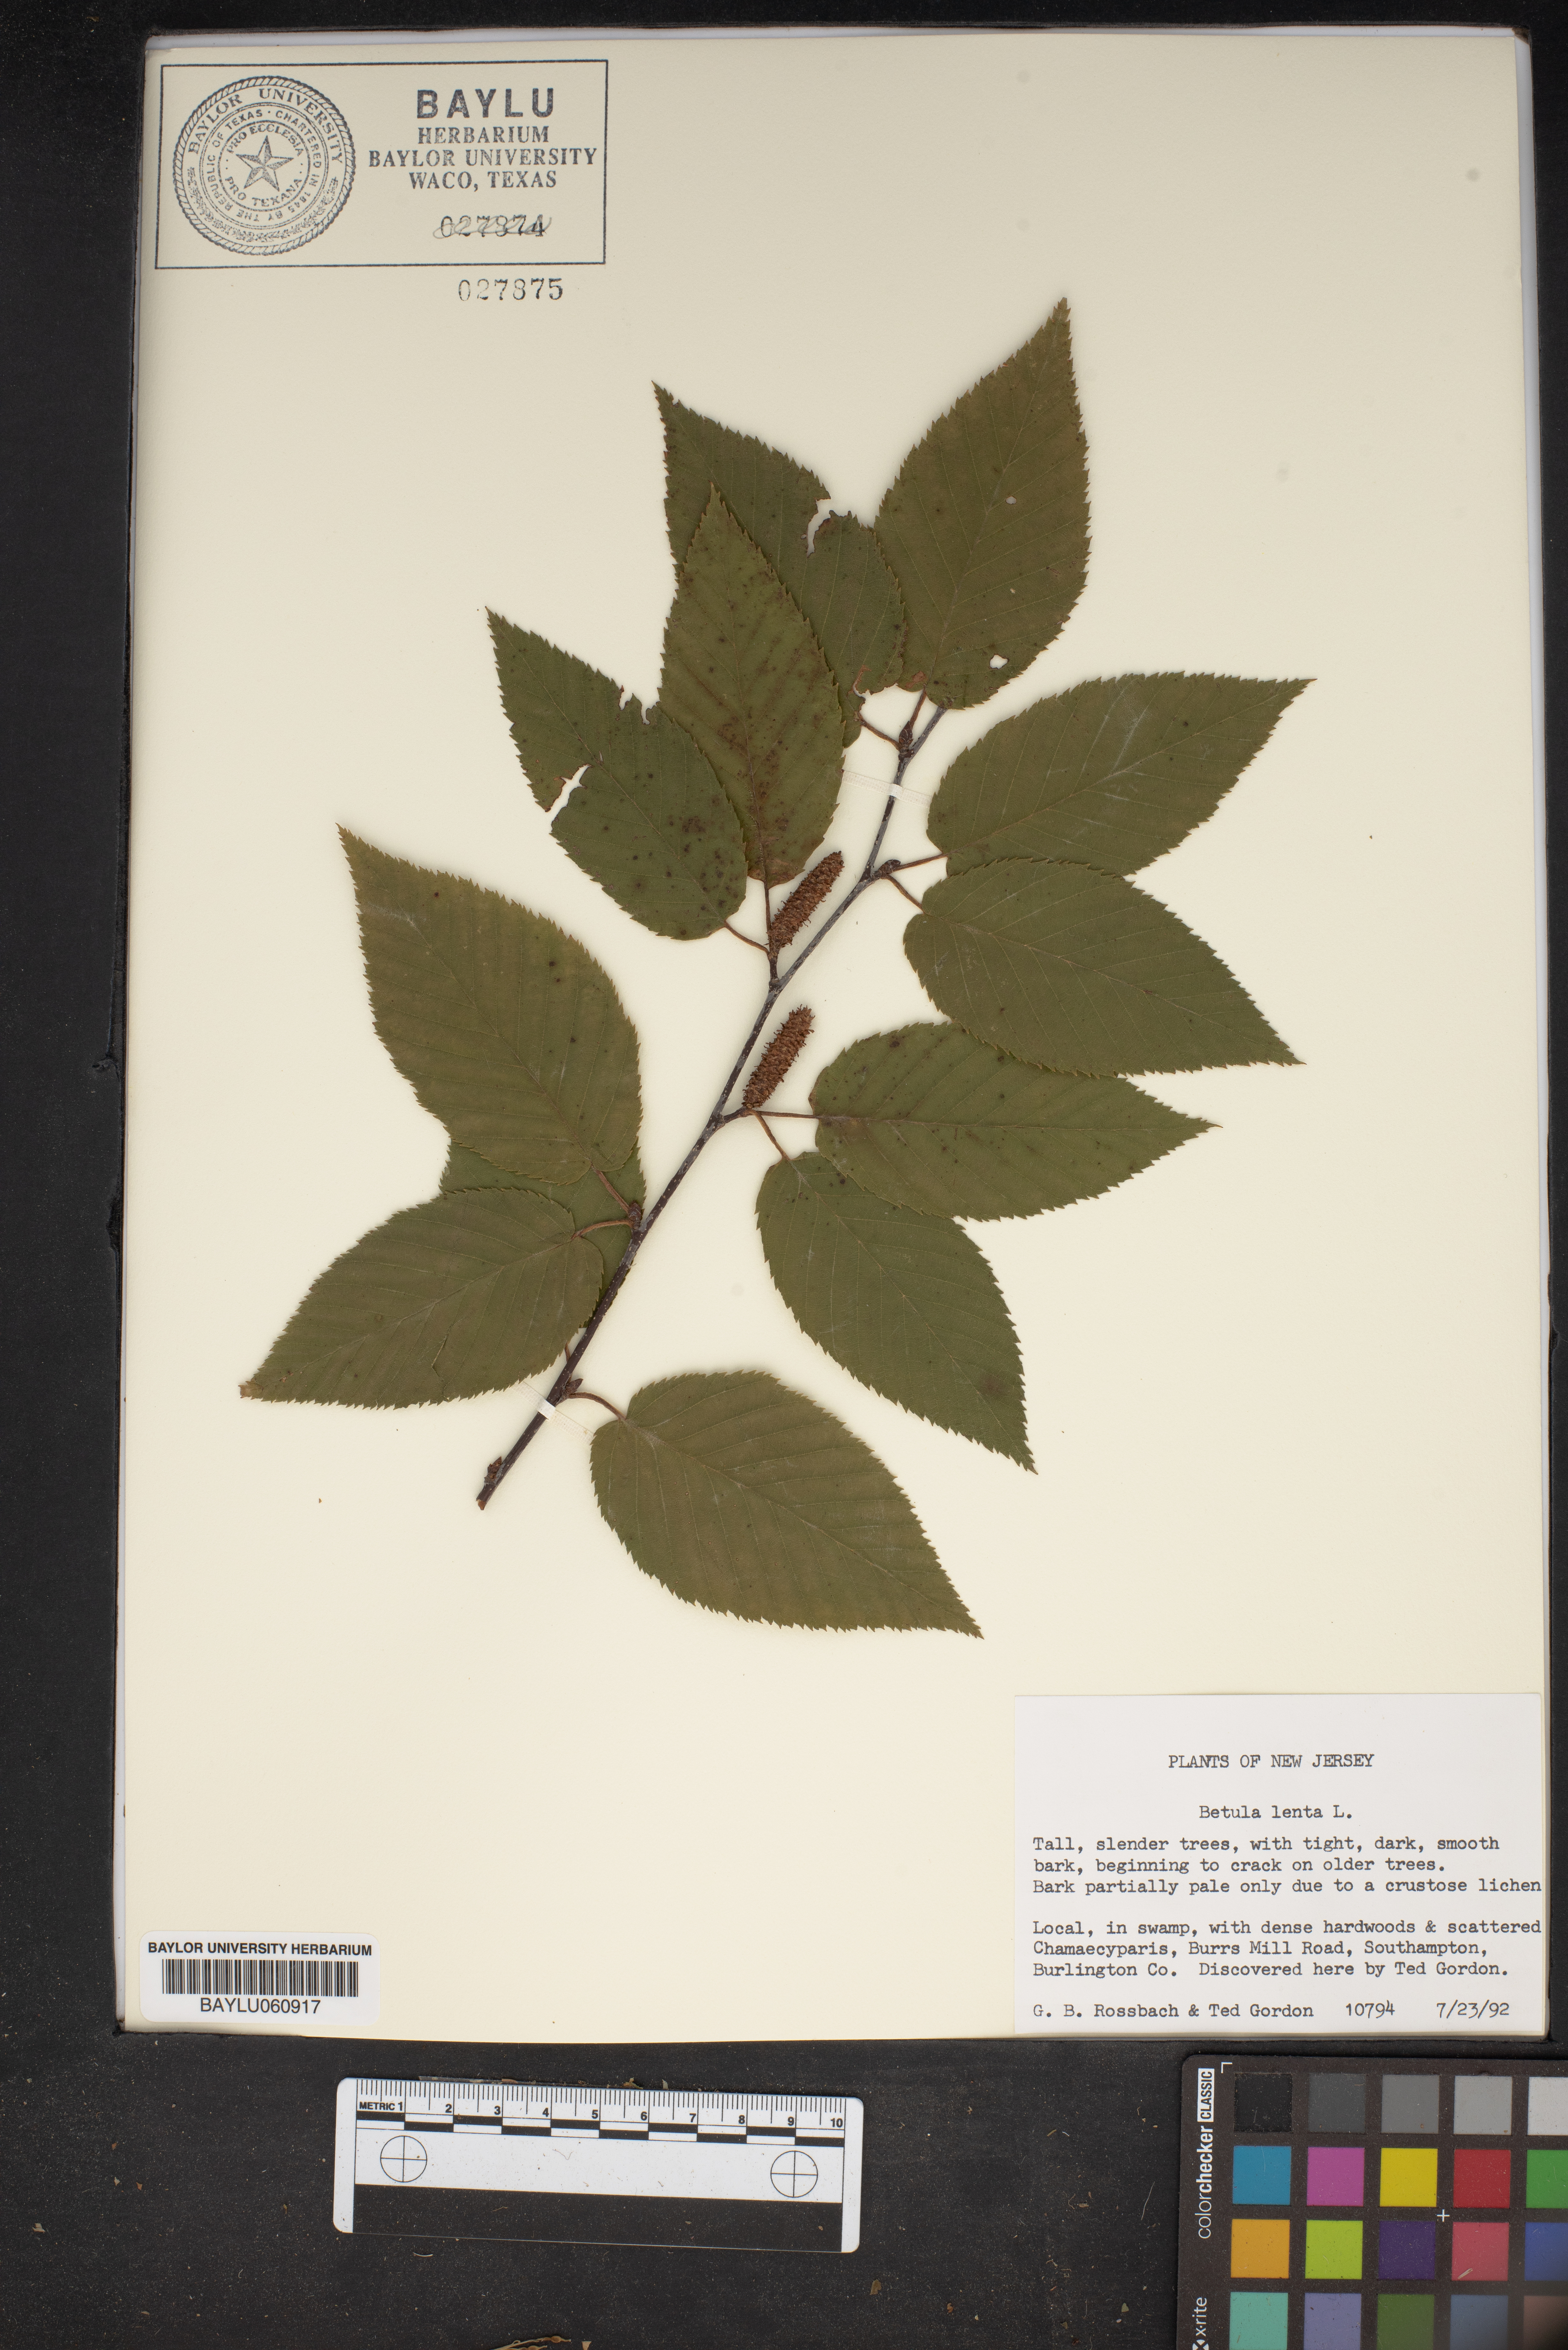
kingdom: Plantae
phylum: Tracheophyta
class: Magnoliopsida
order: Fagales
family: Betulaceae
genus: Betula
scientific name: Betula lenta
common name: Black birch
